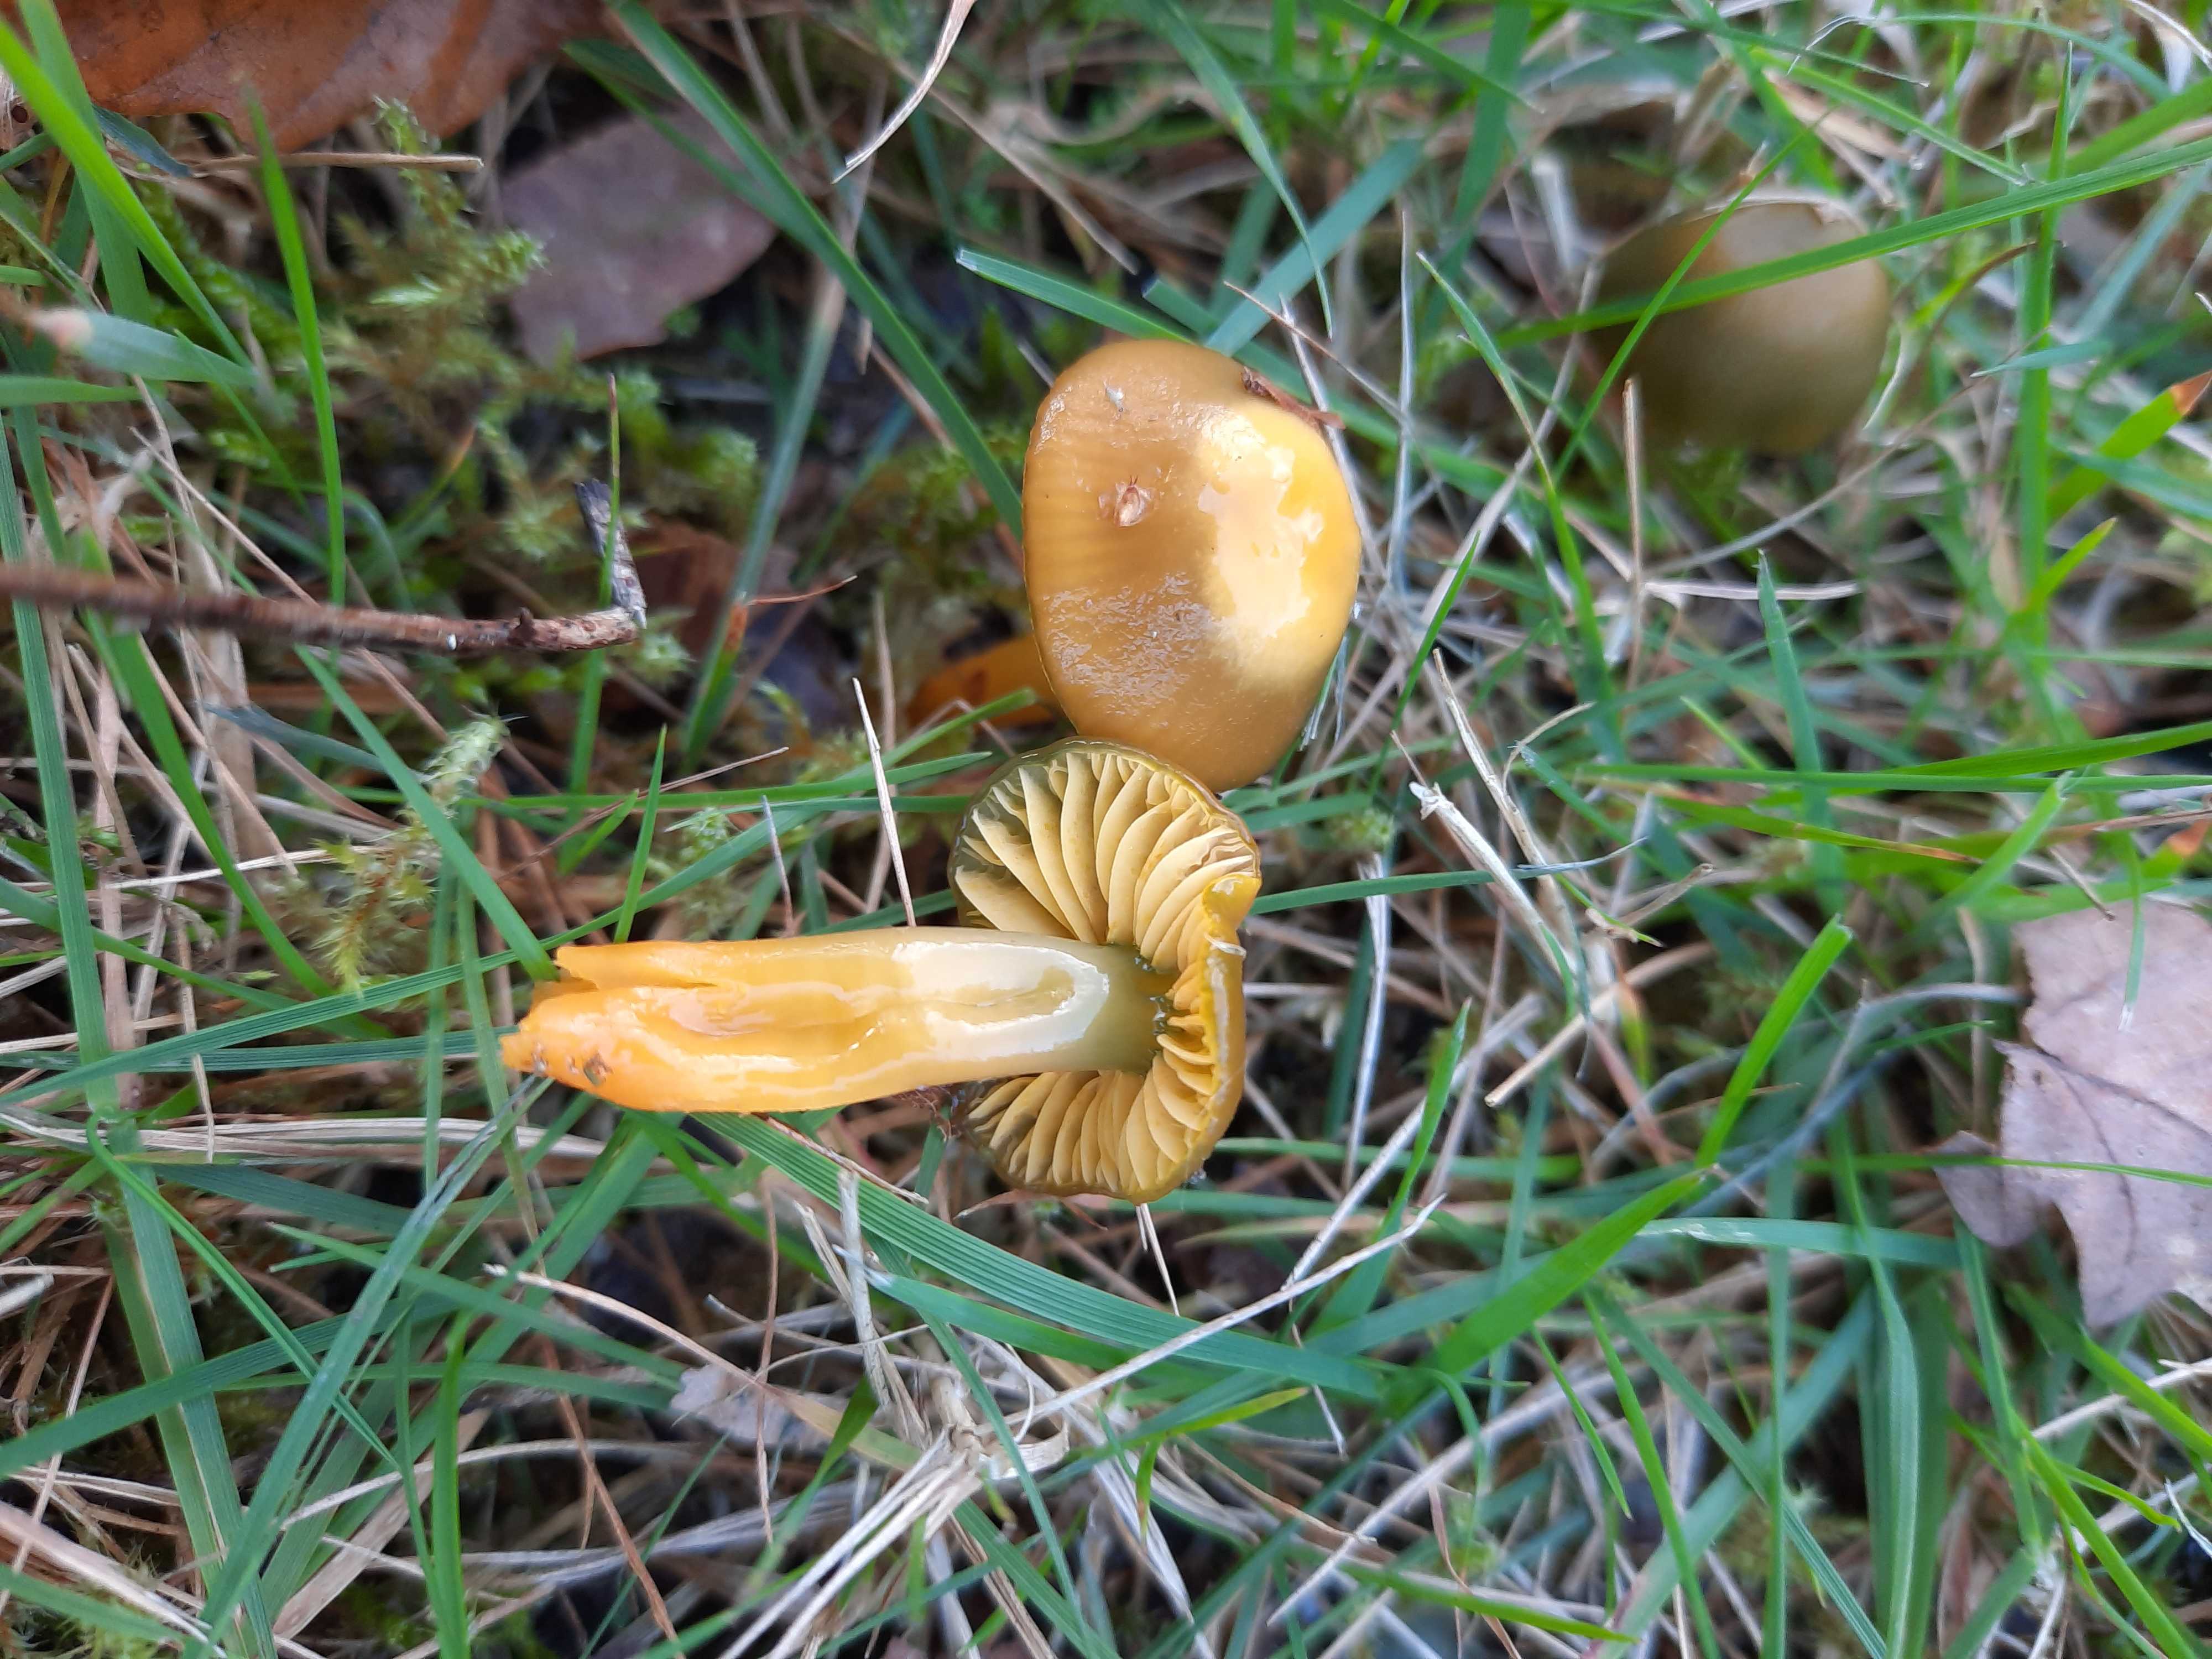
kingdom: Fungi
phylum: Basidiomycota
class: Agaricomycetes
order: Agaricales
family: Hygrophoraceae
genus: Gliophorus
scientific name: Gliophorus psittacinus
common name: papegøje-vokshat
